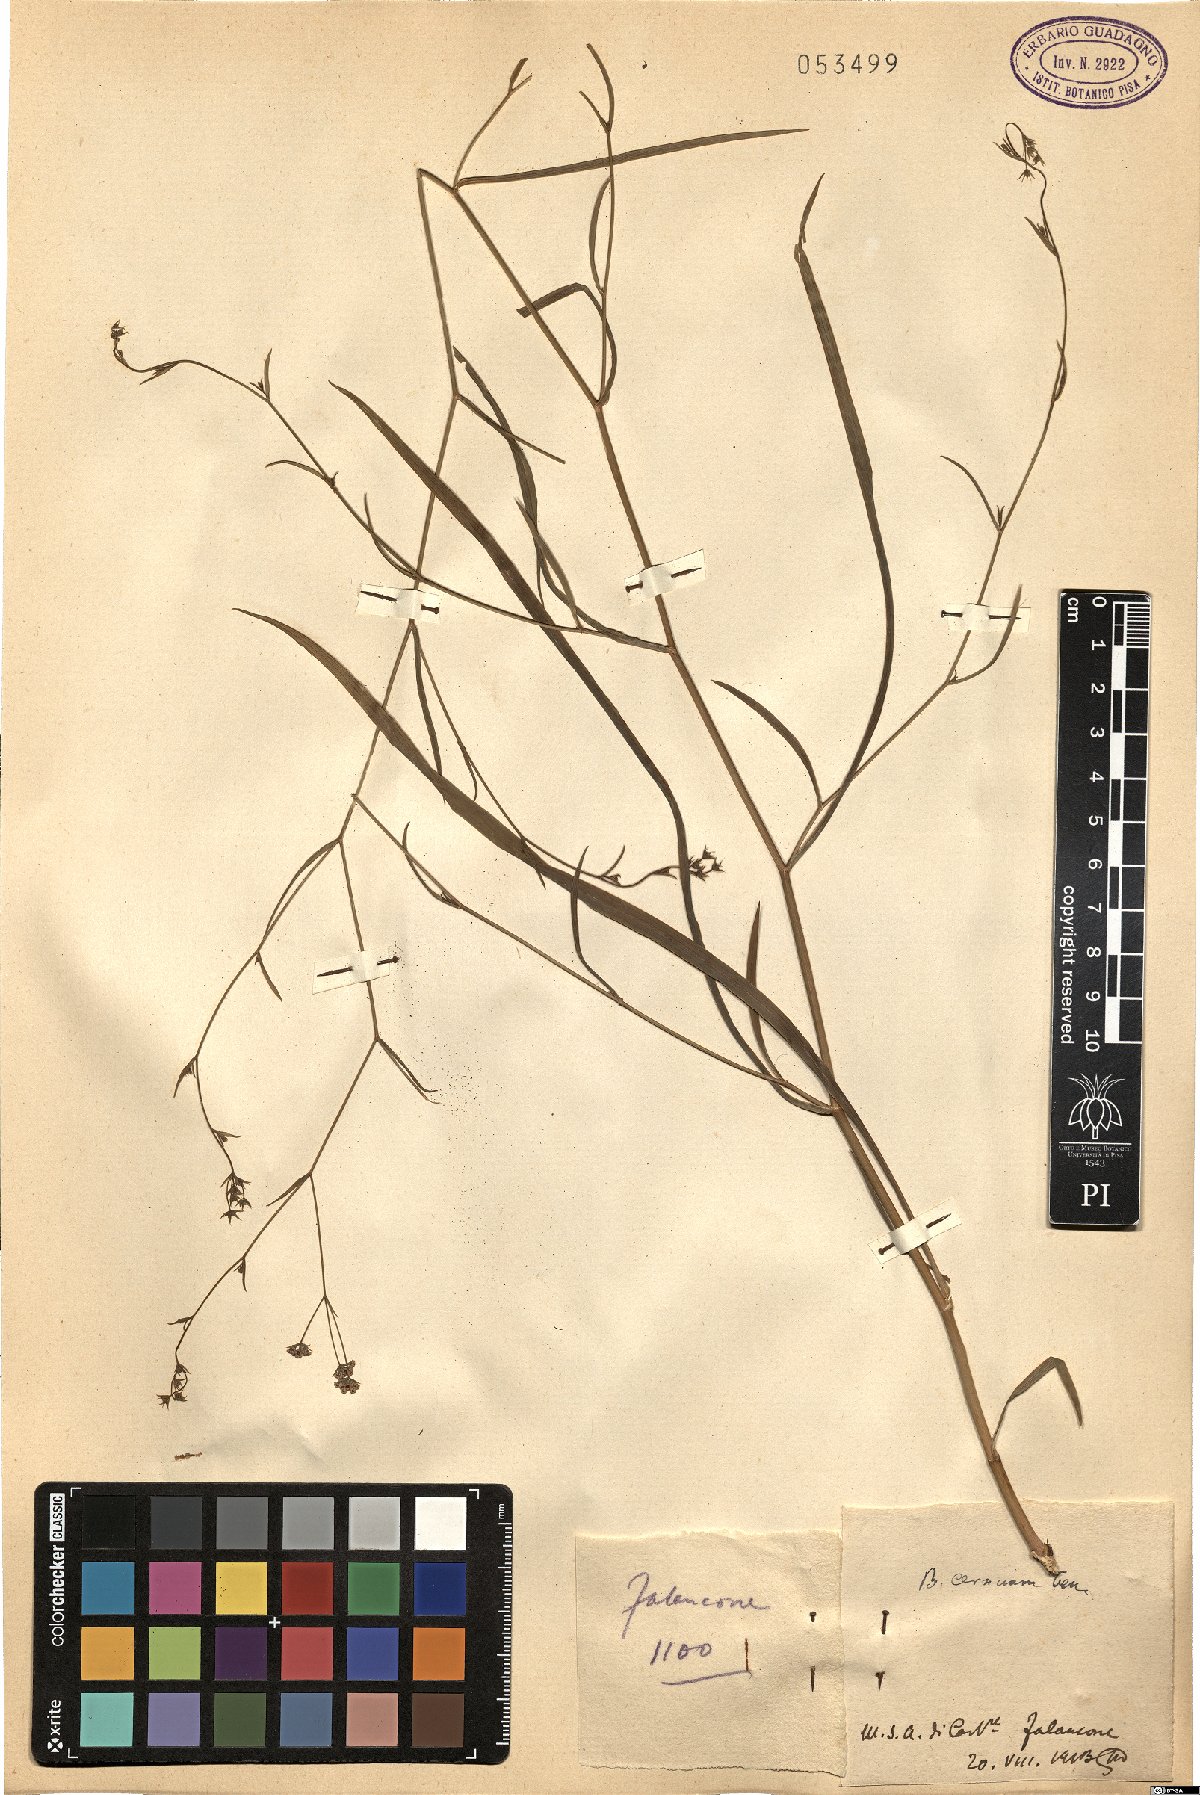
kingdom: Plantae
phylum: Tracheophyta
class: Magnoliopsida
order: Apiales
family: Apiaceae
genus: Bupleurum
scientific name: Bupleurum exaltatum
